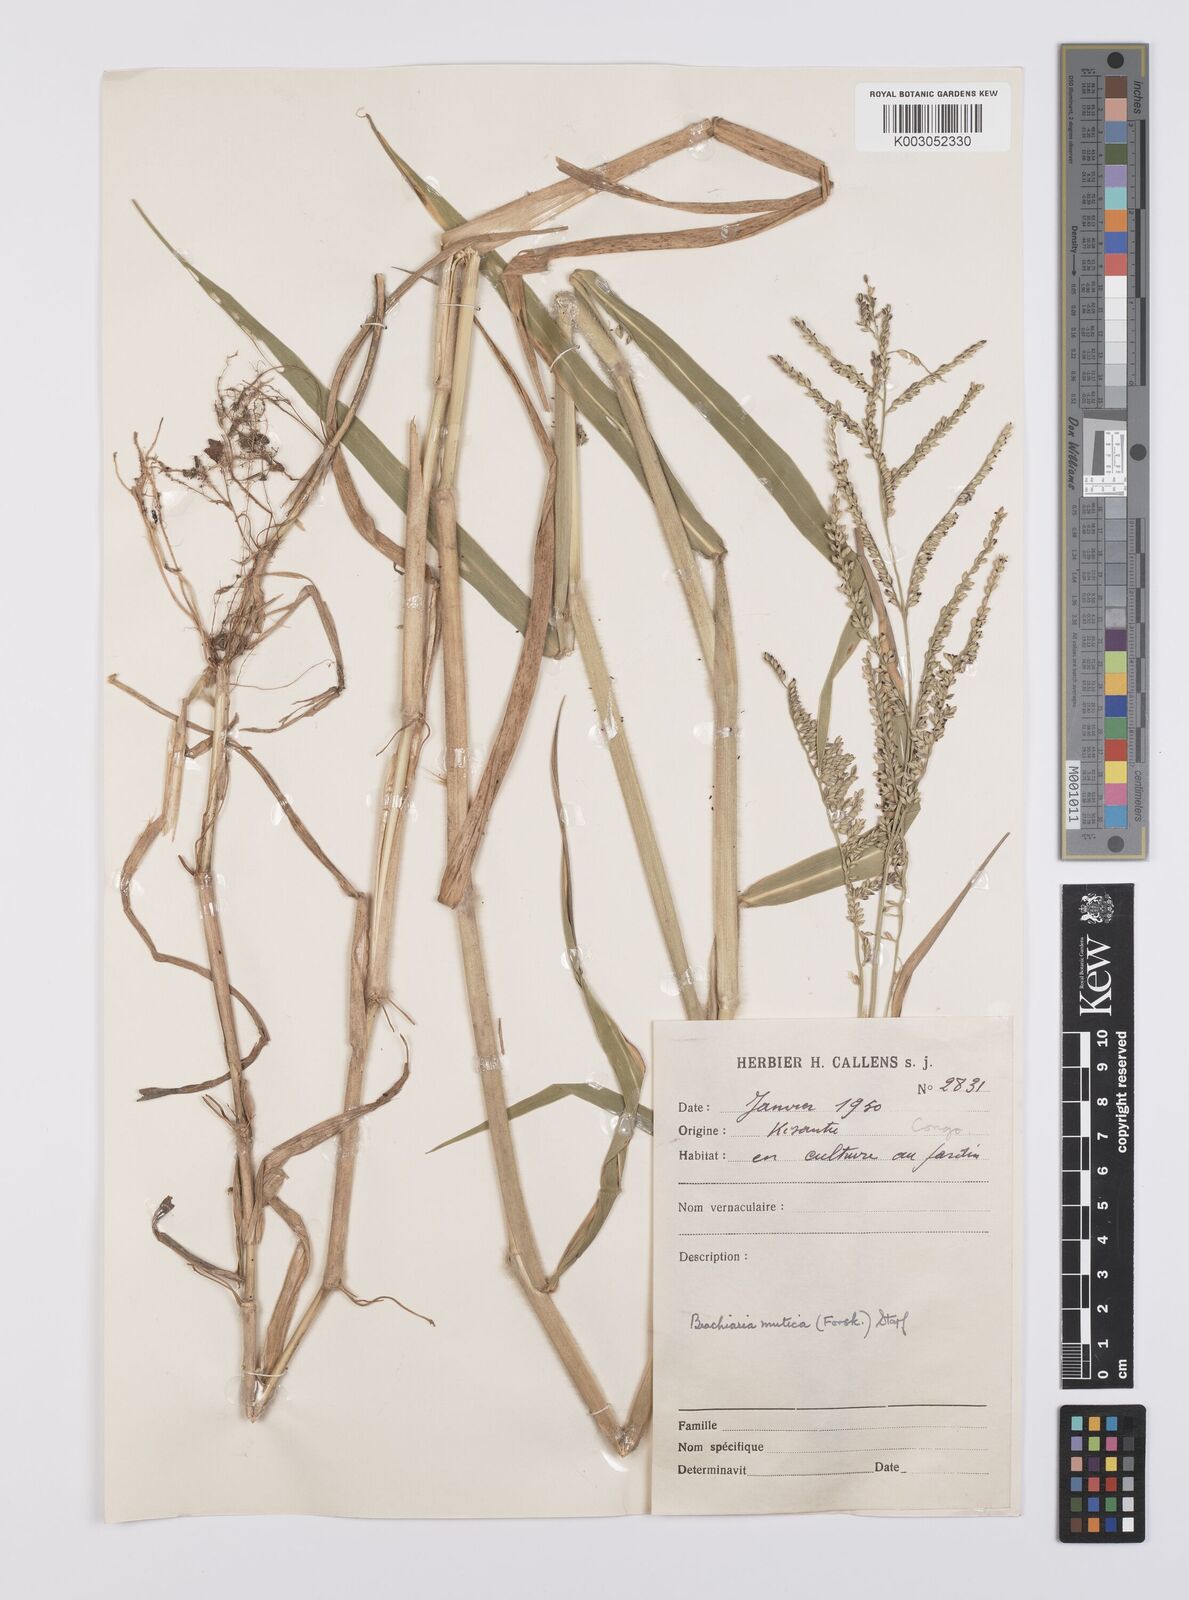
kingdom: Plantae
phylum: Tracheophyta
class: Liliopsida
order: Poales
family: Poaceae
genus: Urochloa
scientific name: Urochloa mutica
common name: Para grass
